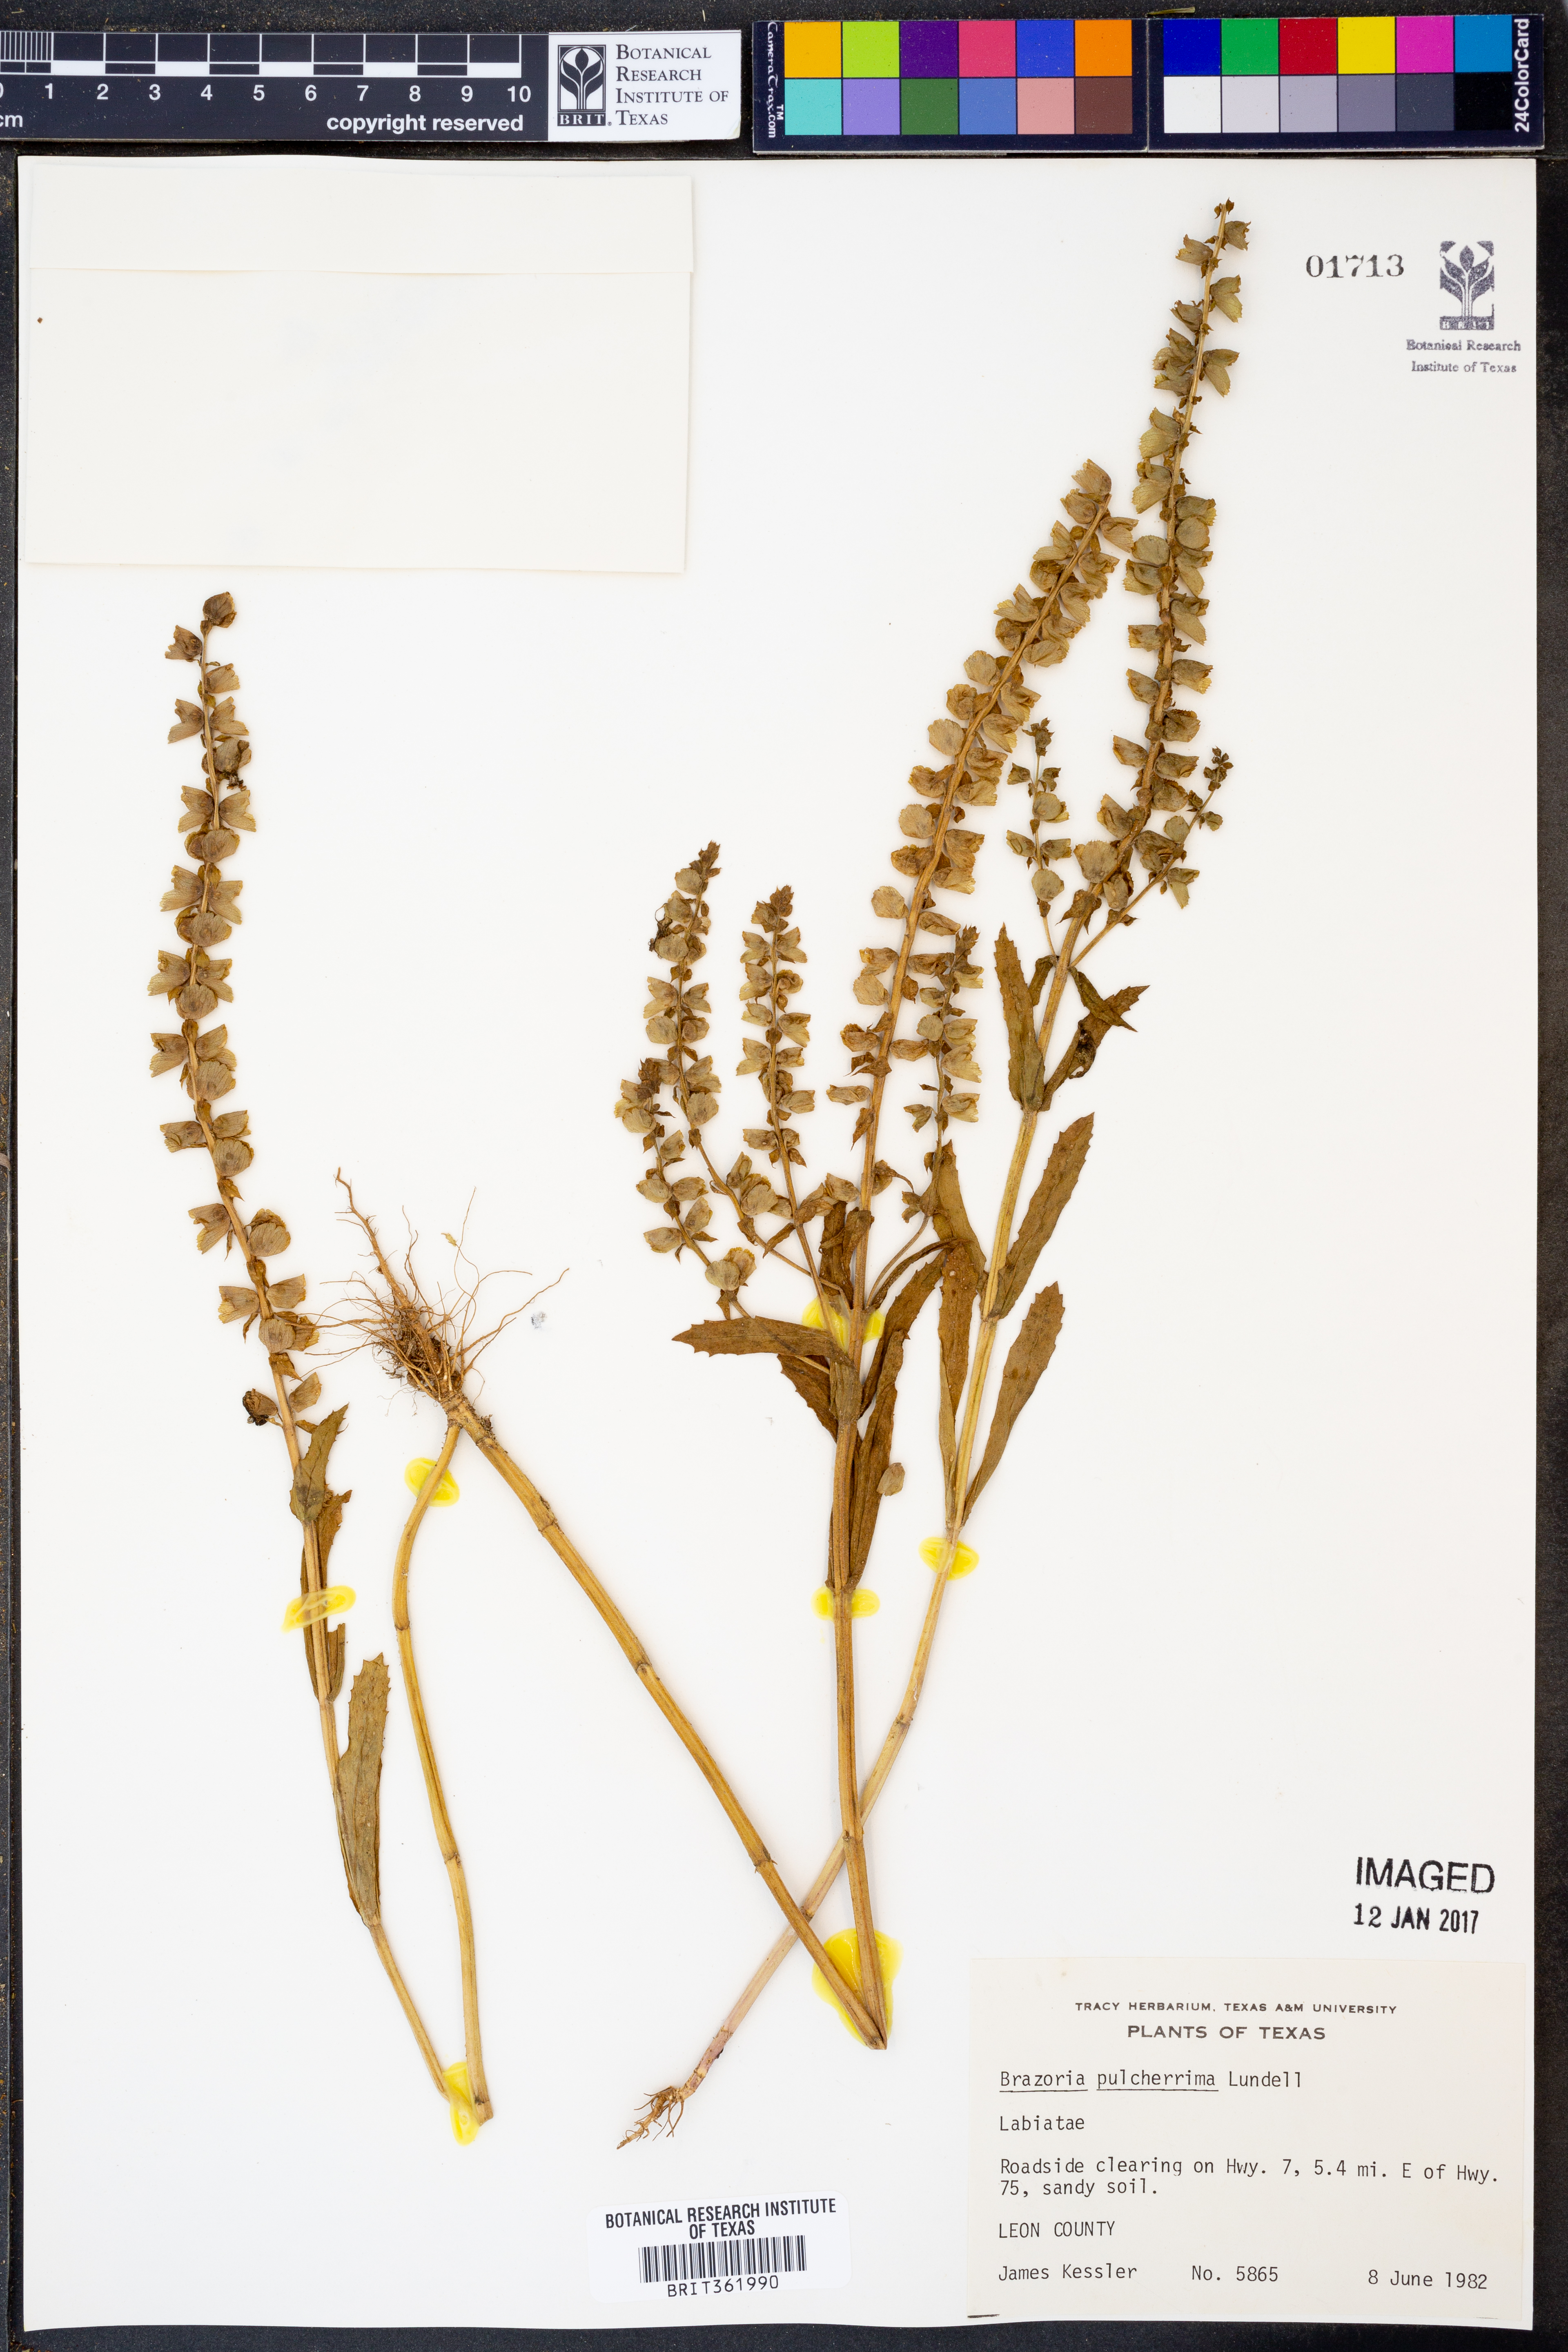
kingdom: Plantae
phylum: Tracheophyta
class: Magnoliopsida
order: Lamiales
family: Lamiaceae
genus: Brazoria
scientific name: Brazoria truncata
